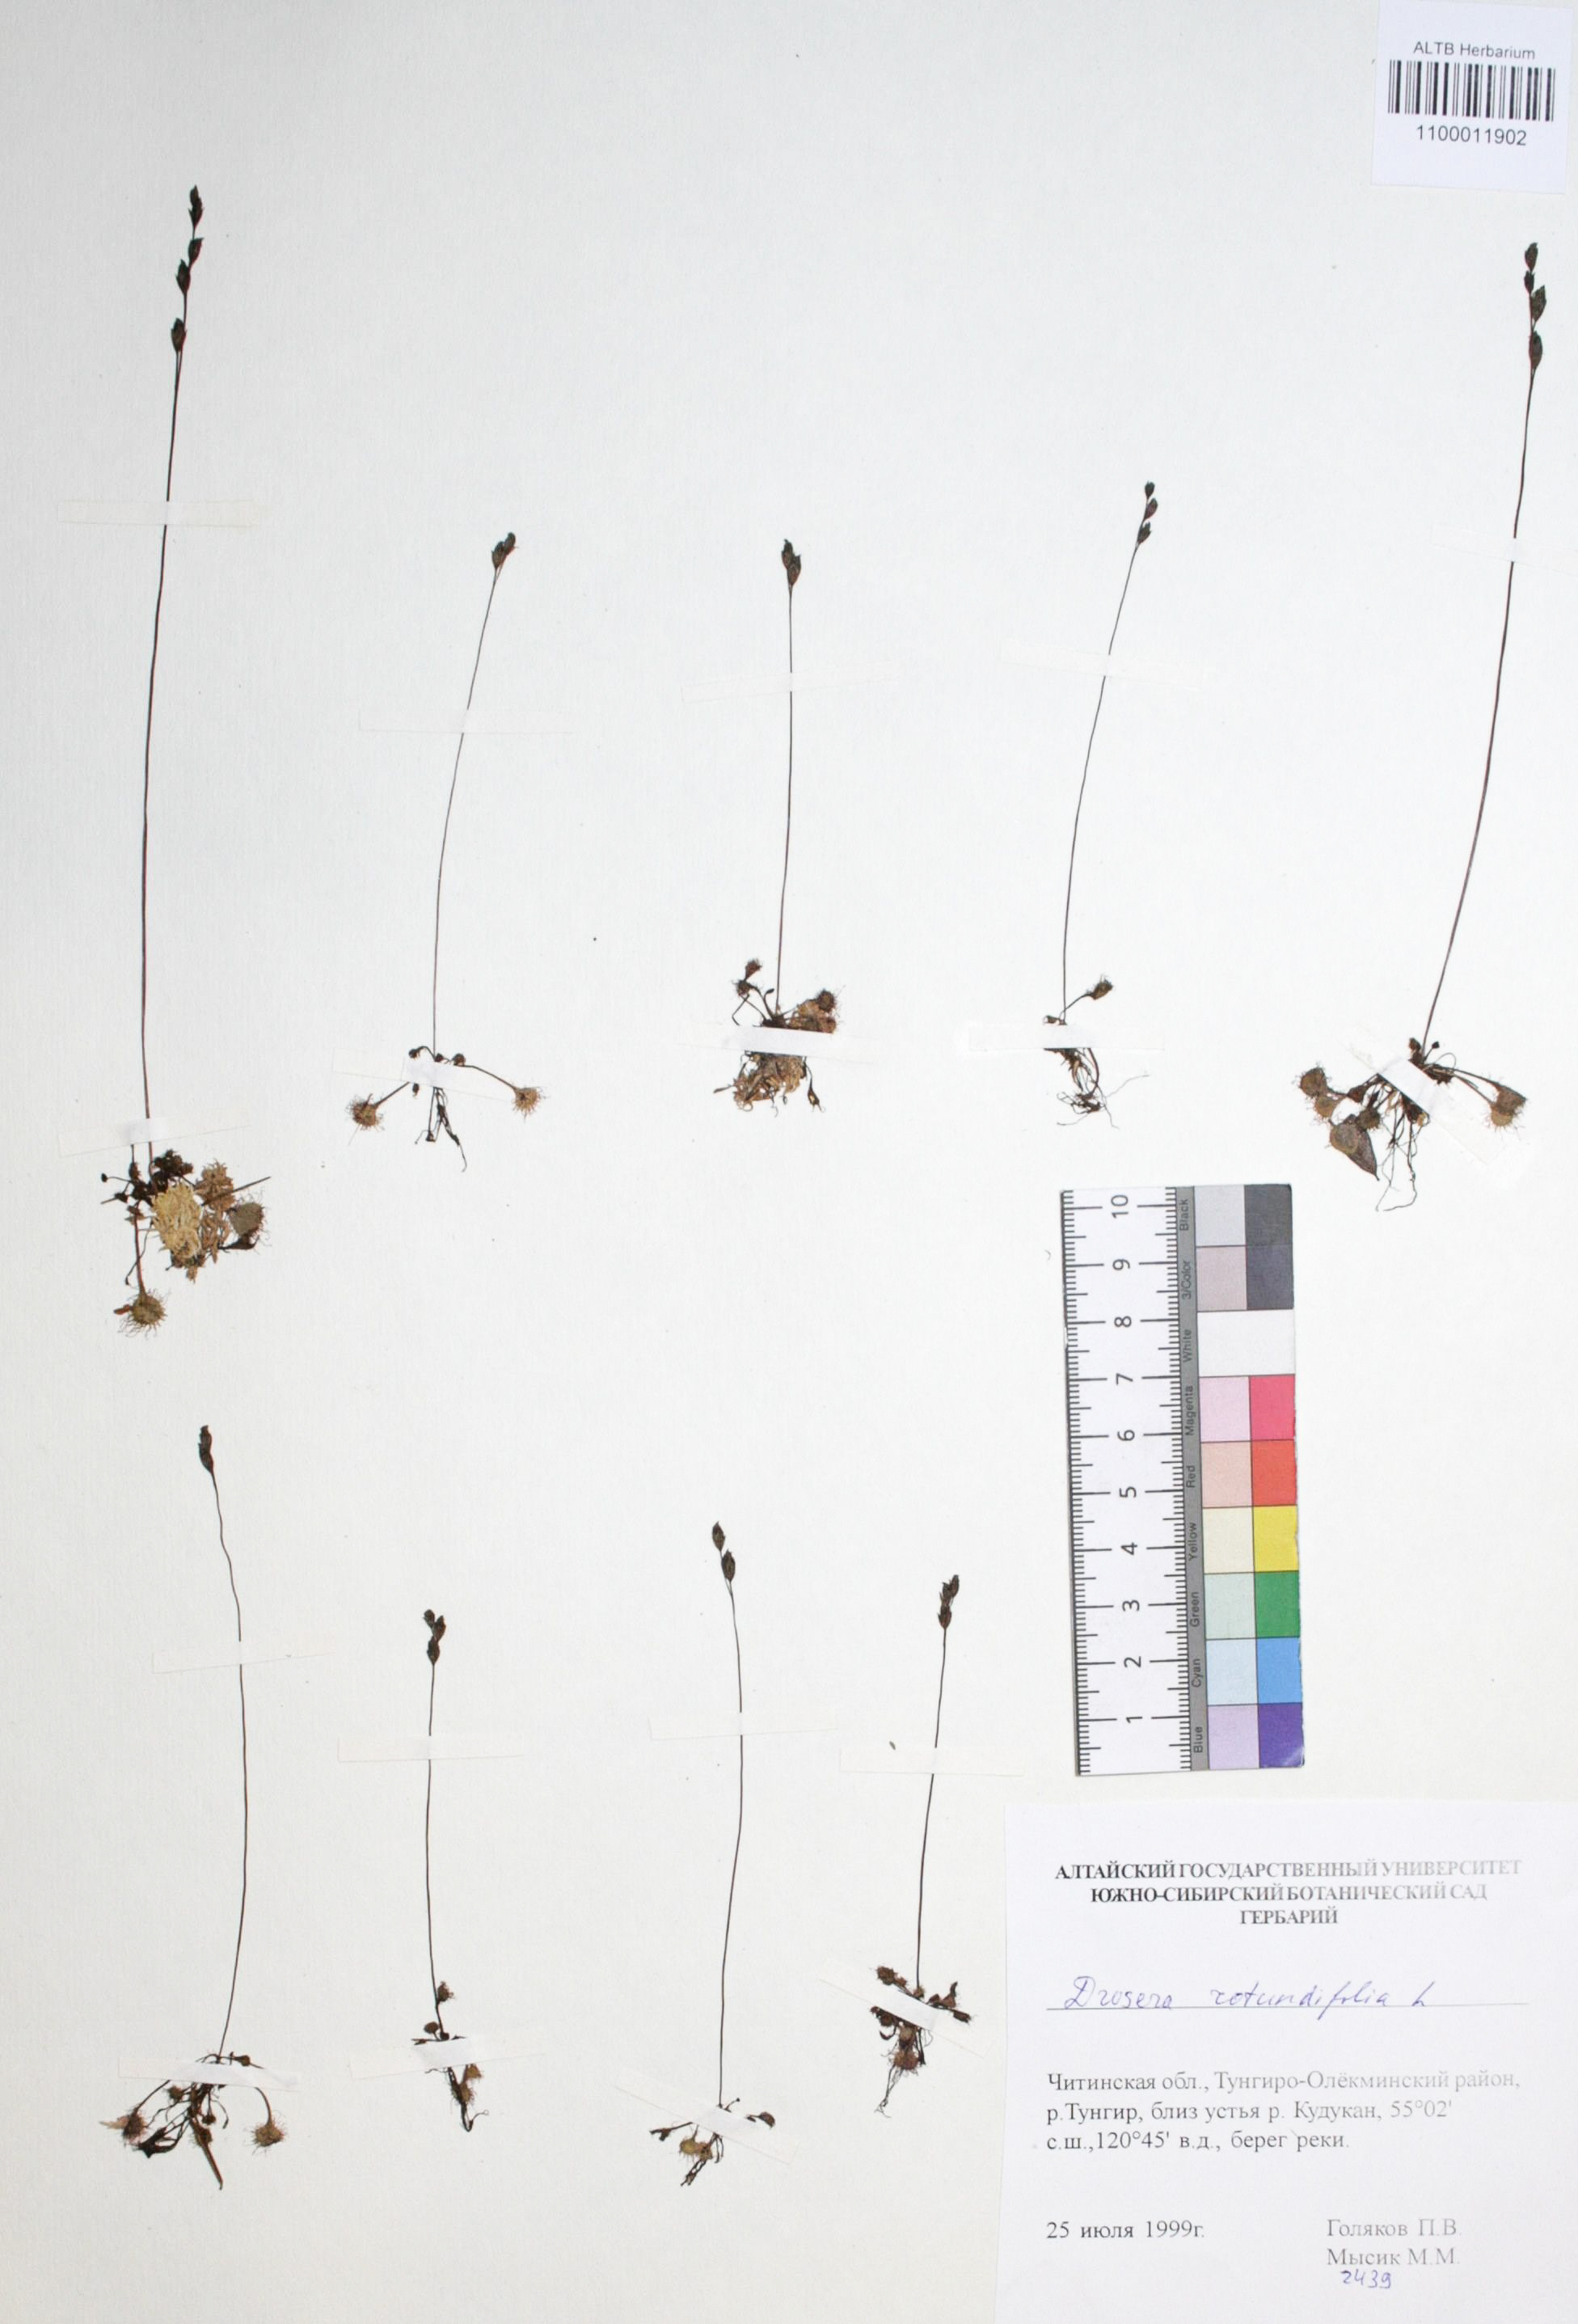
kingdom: Plantae
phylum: Tracheophyta
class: Magnoliopsida
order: Caryophyllales
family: Droseraceae
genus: Drosera
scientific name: Drosera rotundifolia
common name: Round-leaved sundew
